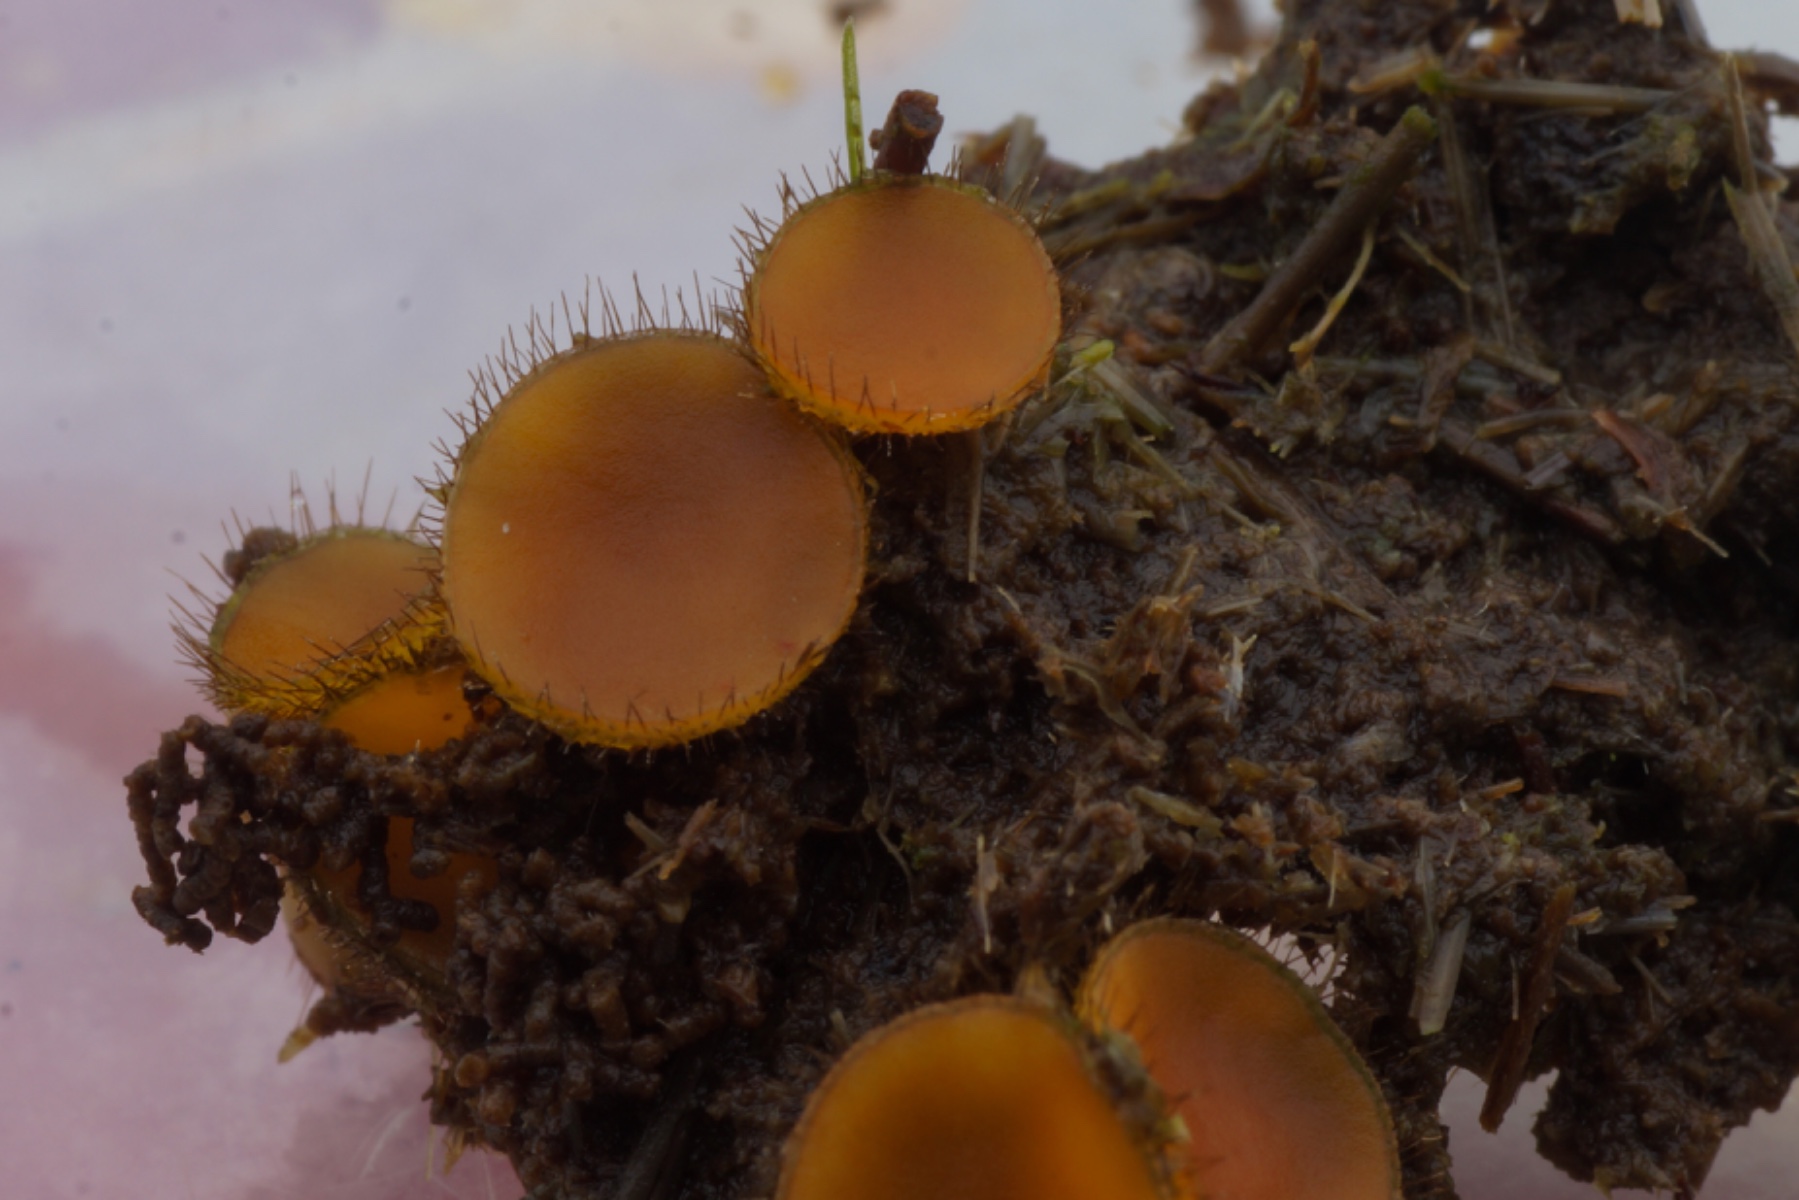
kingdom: Fungi
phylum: Ascomycota
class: Pezizomycetes
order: Pezizales
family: Pyronemataceae
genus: Cheilymenia
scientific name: Cheilymenia fimicola
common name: møg-hårbæger
